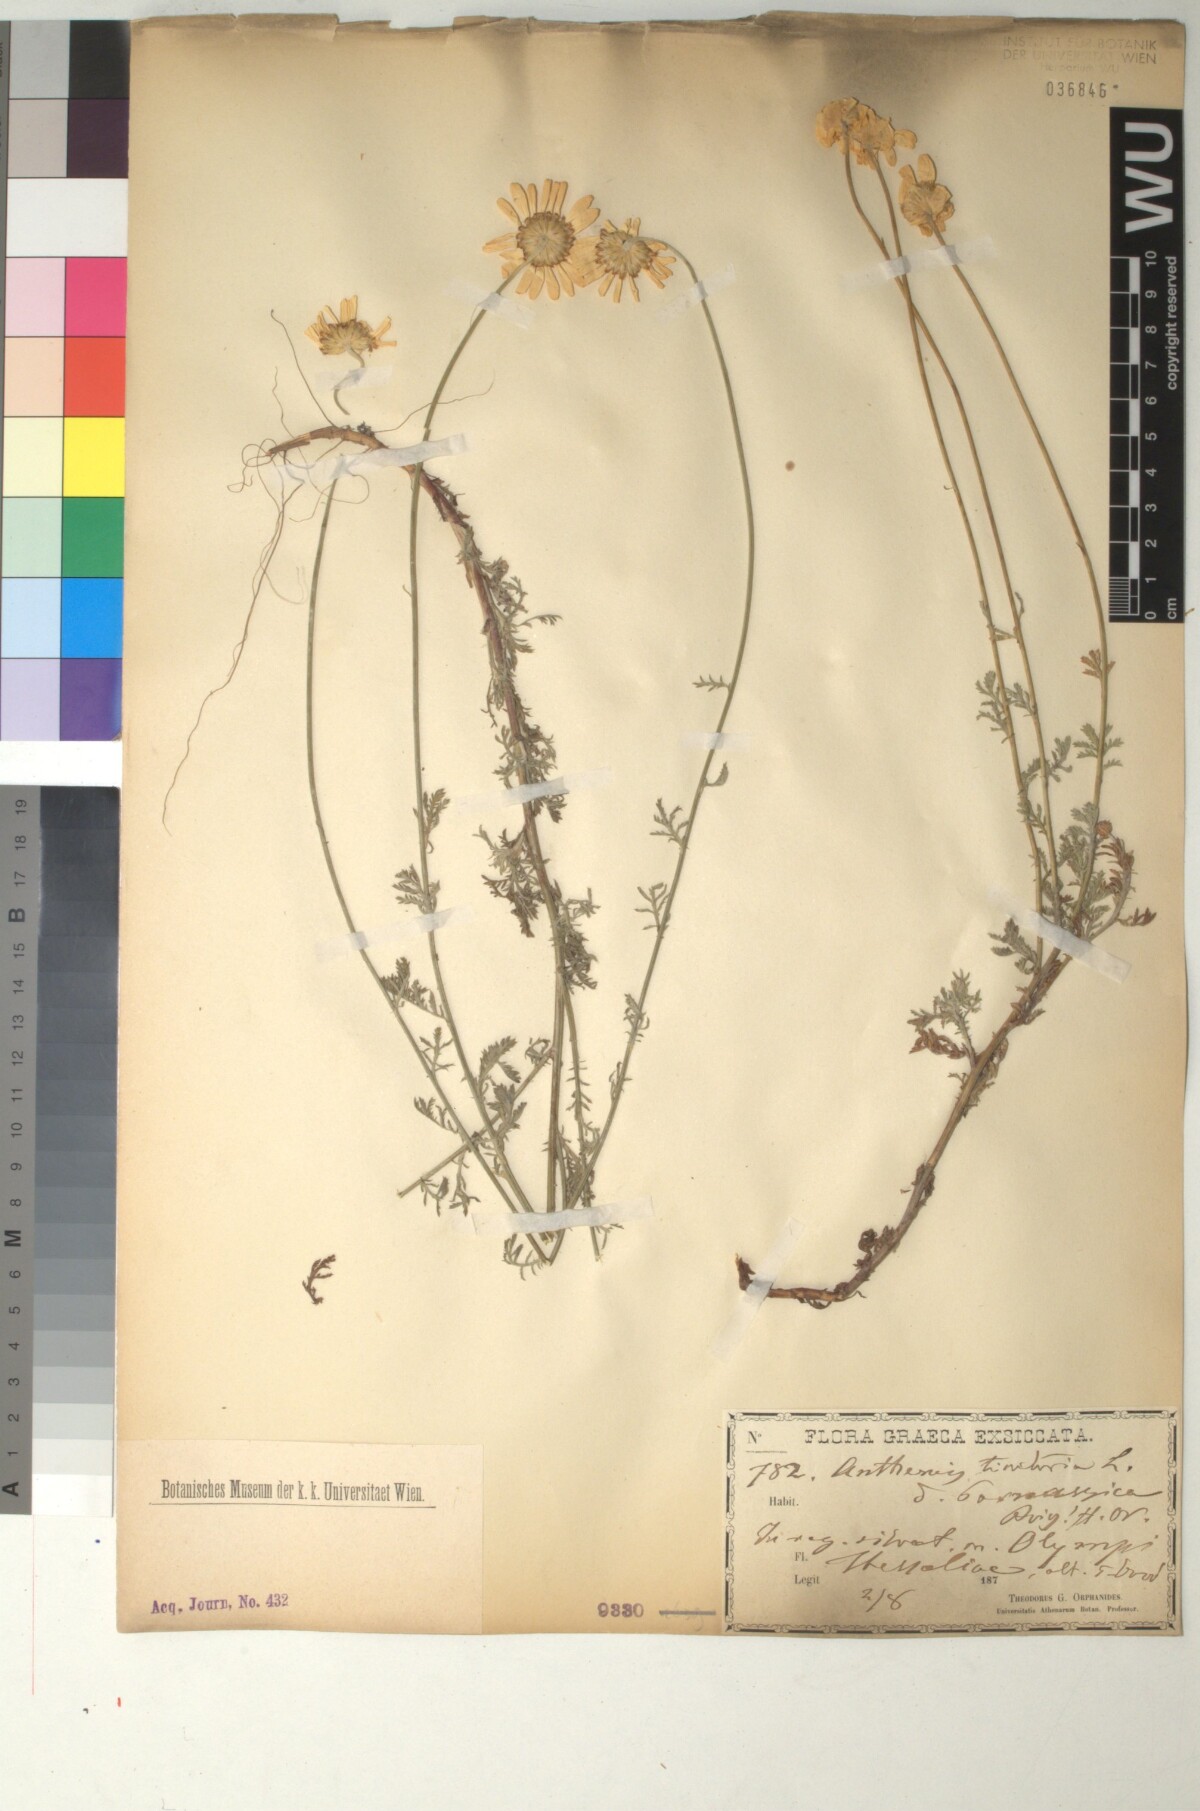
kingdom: Plantae
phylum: Tracheophyta
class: Magnoliopsida
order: Asterales
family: Asteraceae
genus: Cota
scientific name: Cota tinctoria
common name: Golden chamomile
